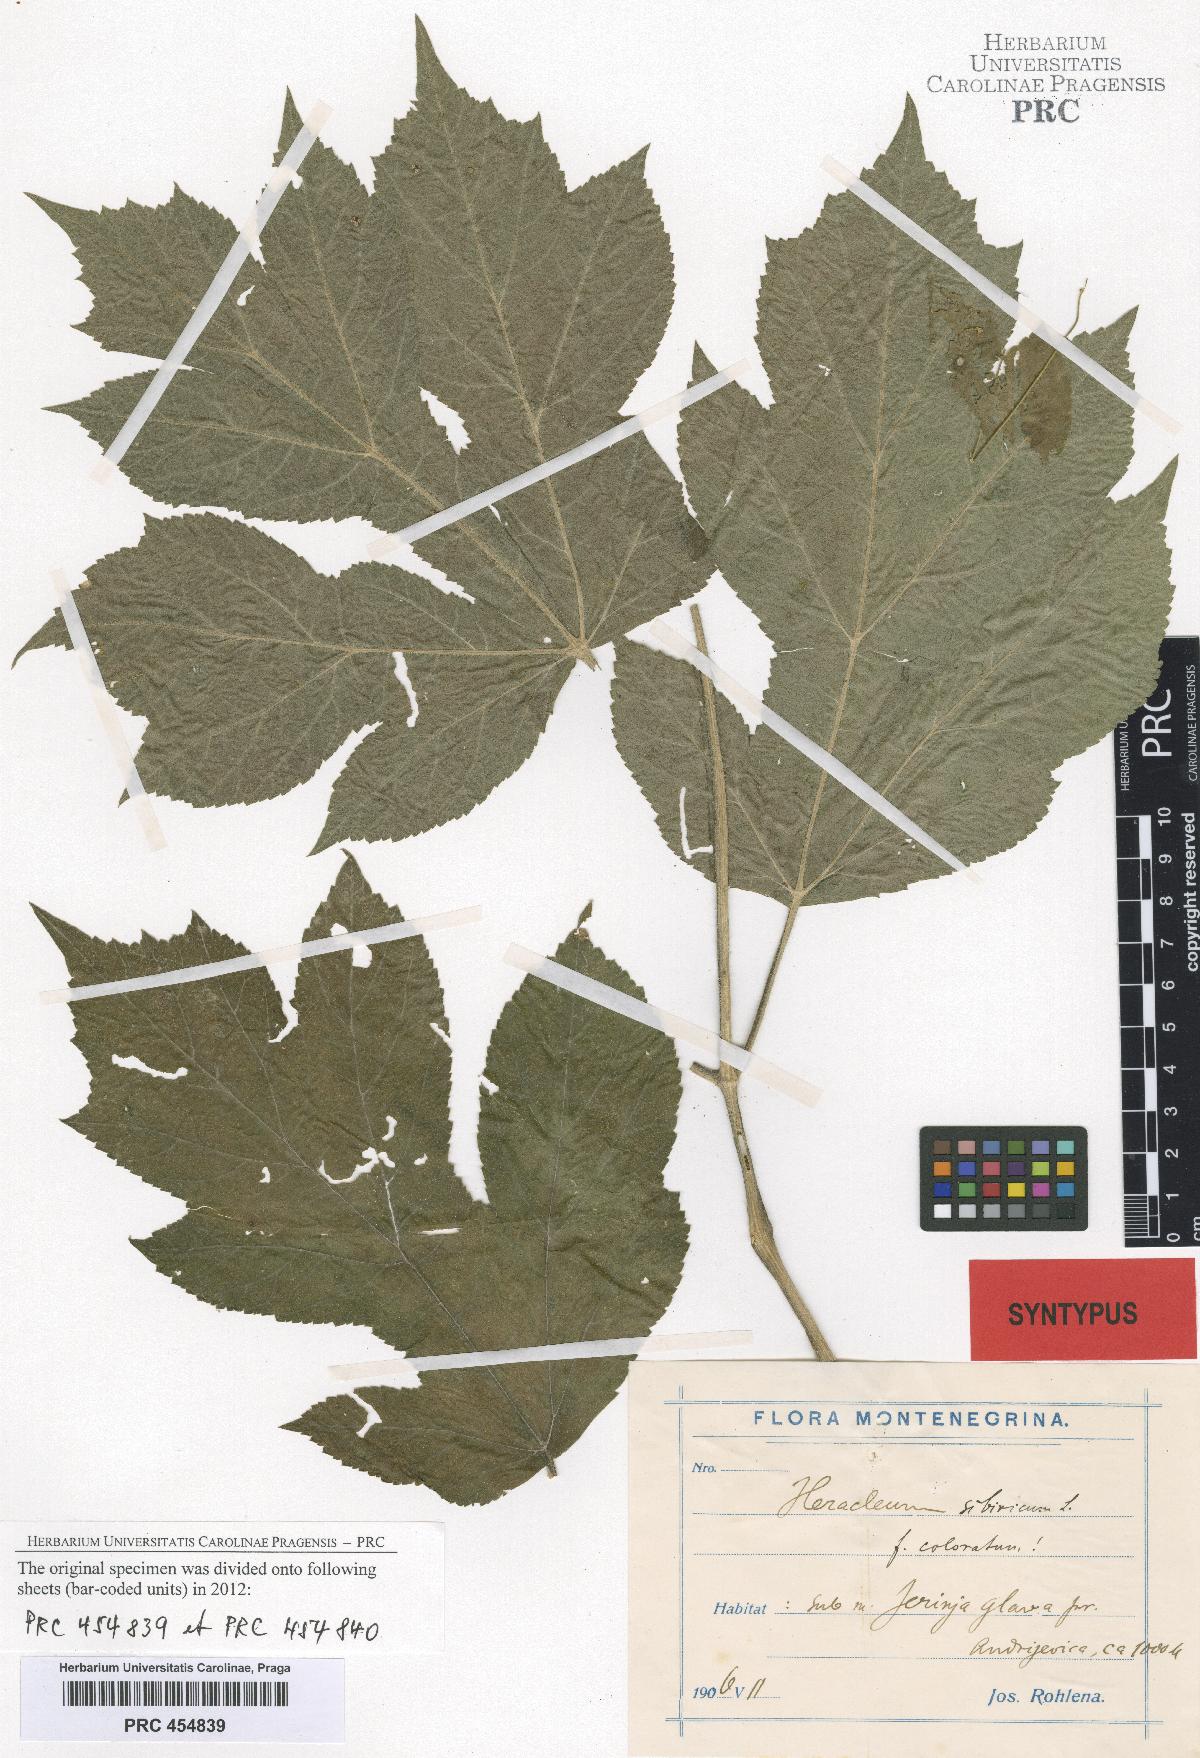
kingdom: Plantae
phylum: Tracheophyta
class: Magnoliopsida
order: Apiales
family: Apiaceae
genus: Heracleum
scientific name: Heracleum sphondylium
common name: Hogweed
